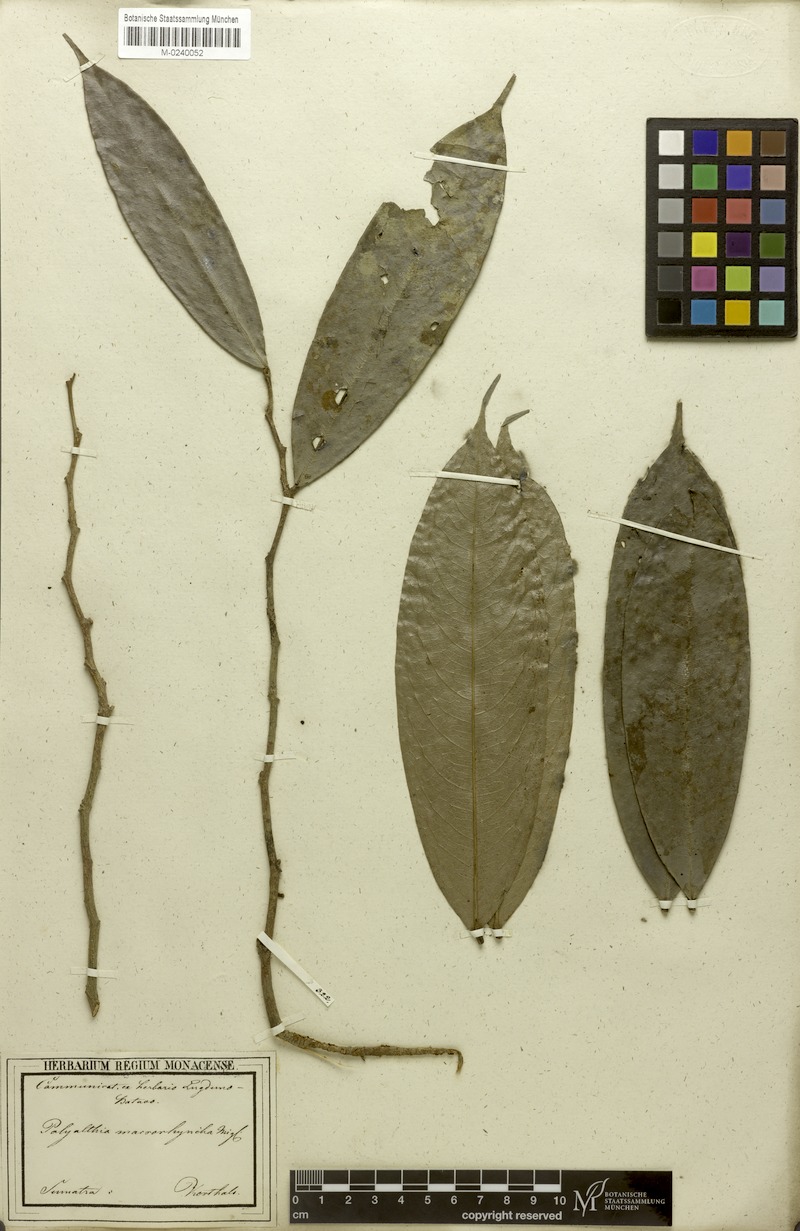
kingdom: Plantae
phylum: Tracheophyta
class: Magnoliopsida
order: Magnoliales
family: Annonaceae
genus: Polyalthia
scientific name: Polyalthia cauliflora
